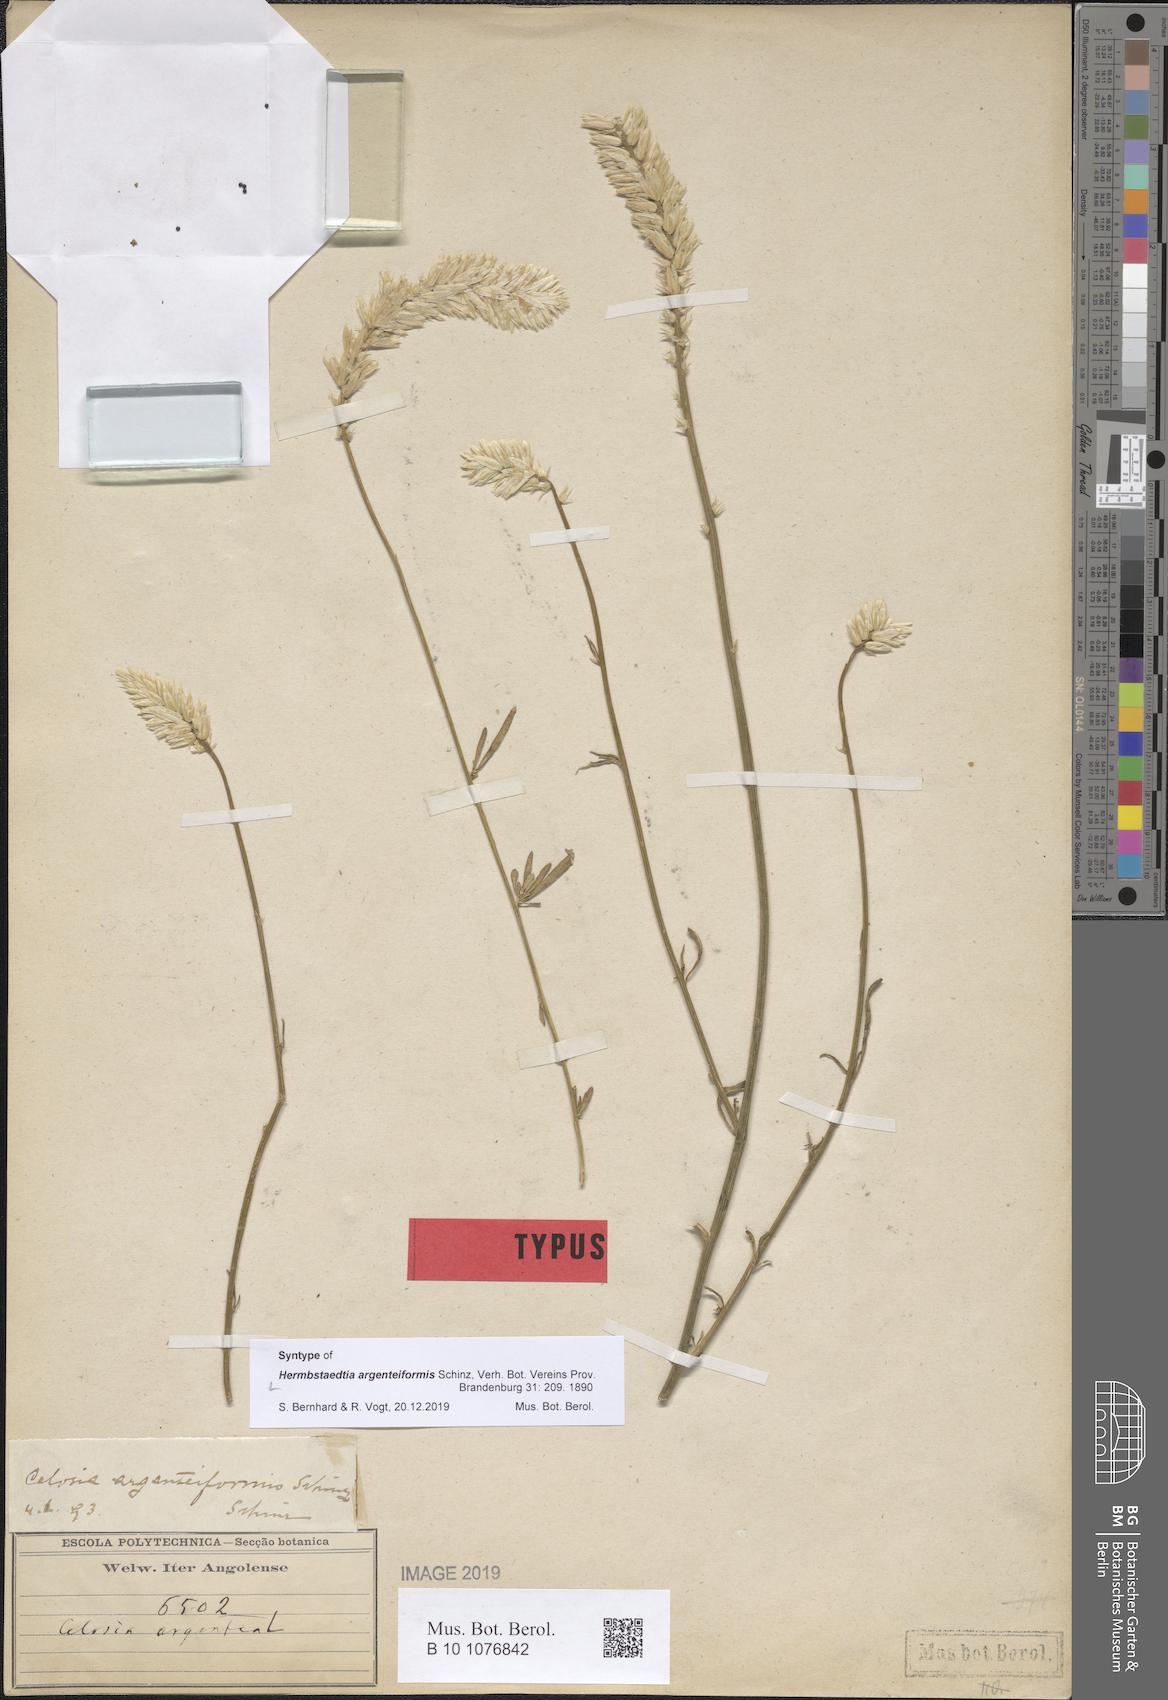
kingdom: Plantae
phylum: Tracheophyta
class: Magnoliopsida
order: Caryophyllales
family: Amaranthaceae
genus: Hermbstaedtia
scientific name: Hermbstaedtia argenteiformis
